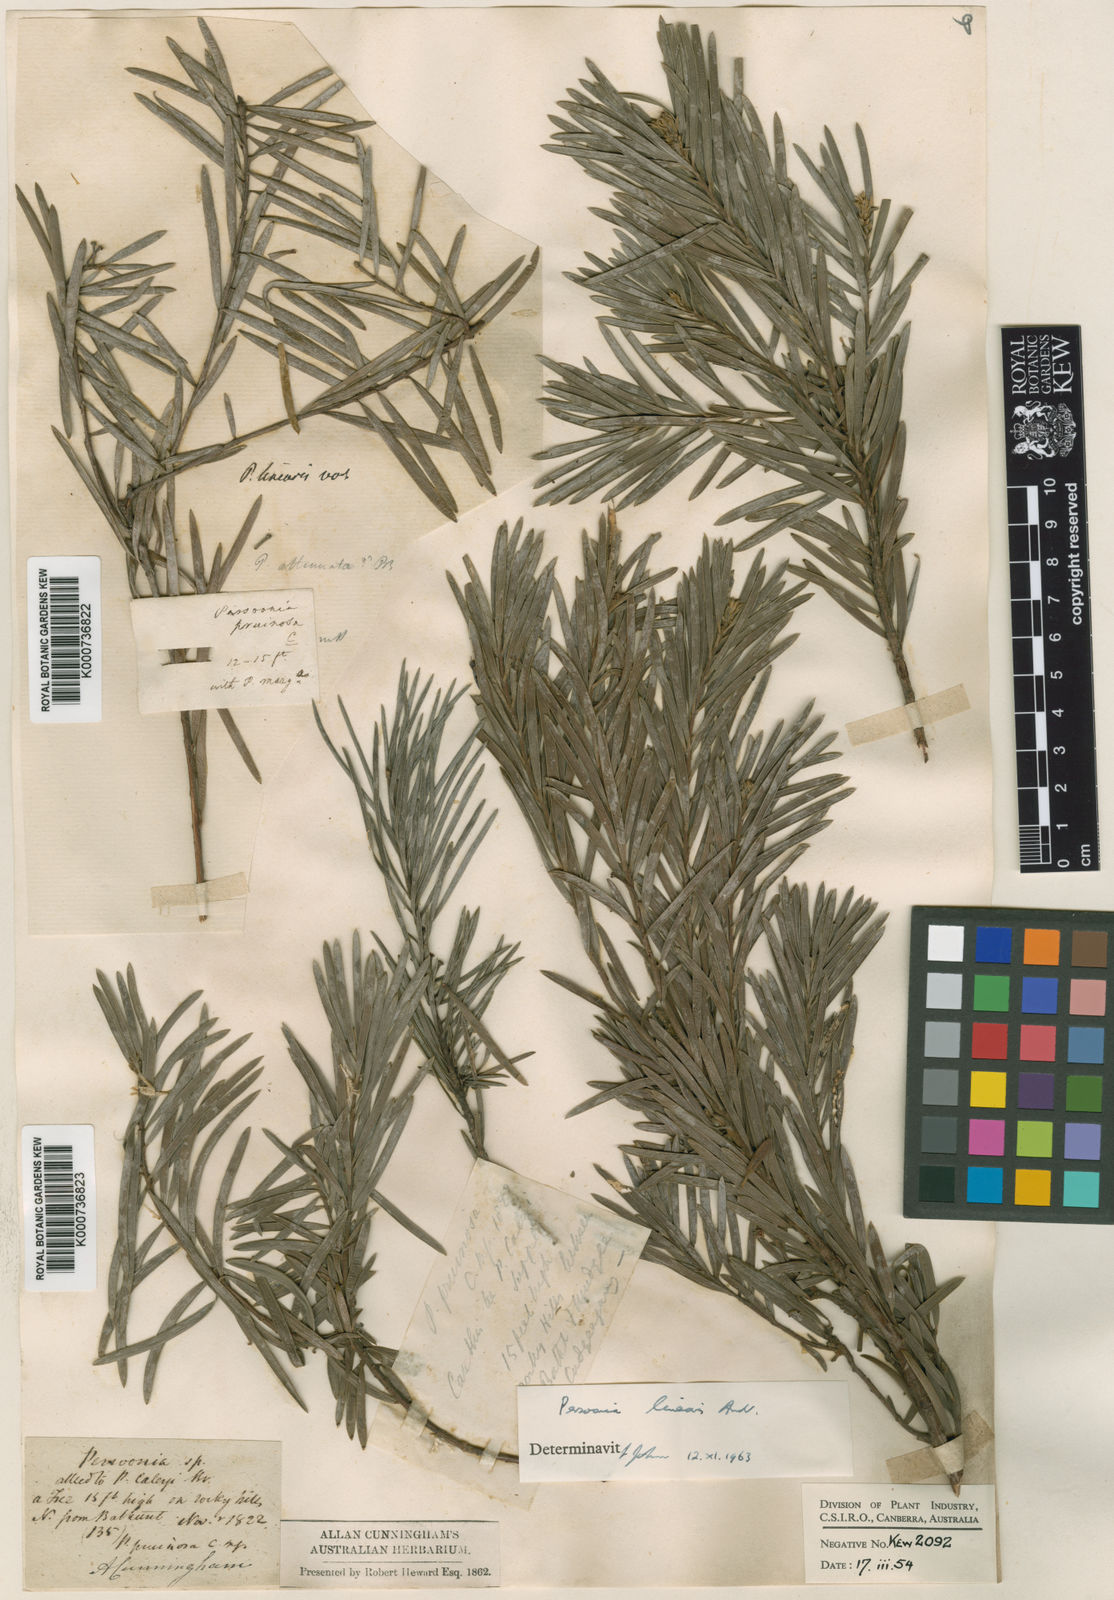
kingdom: Plantae
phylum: Tracheophyta
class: Magnoliopsida
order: Proteales
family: Proteaceae
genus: Persoonia
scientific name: Persoonia linearis
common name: Narrow-leaf geebung
